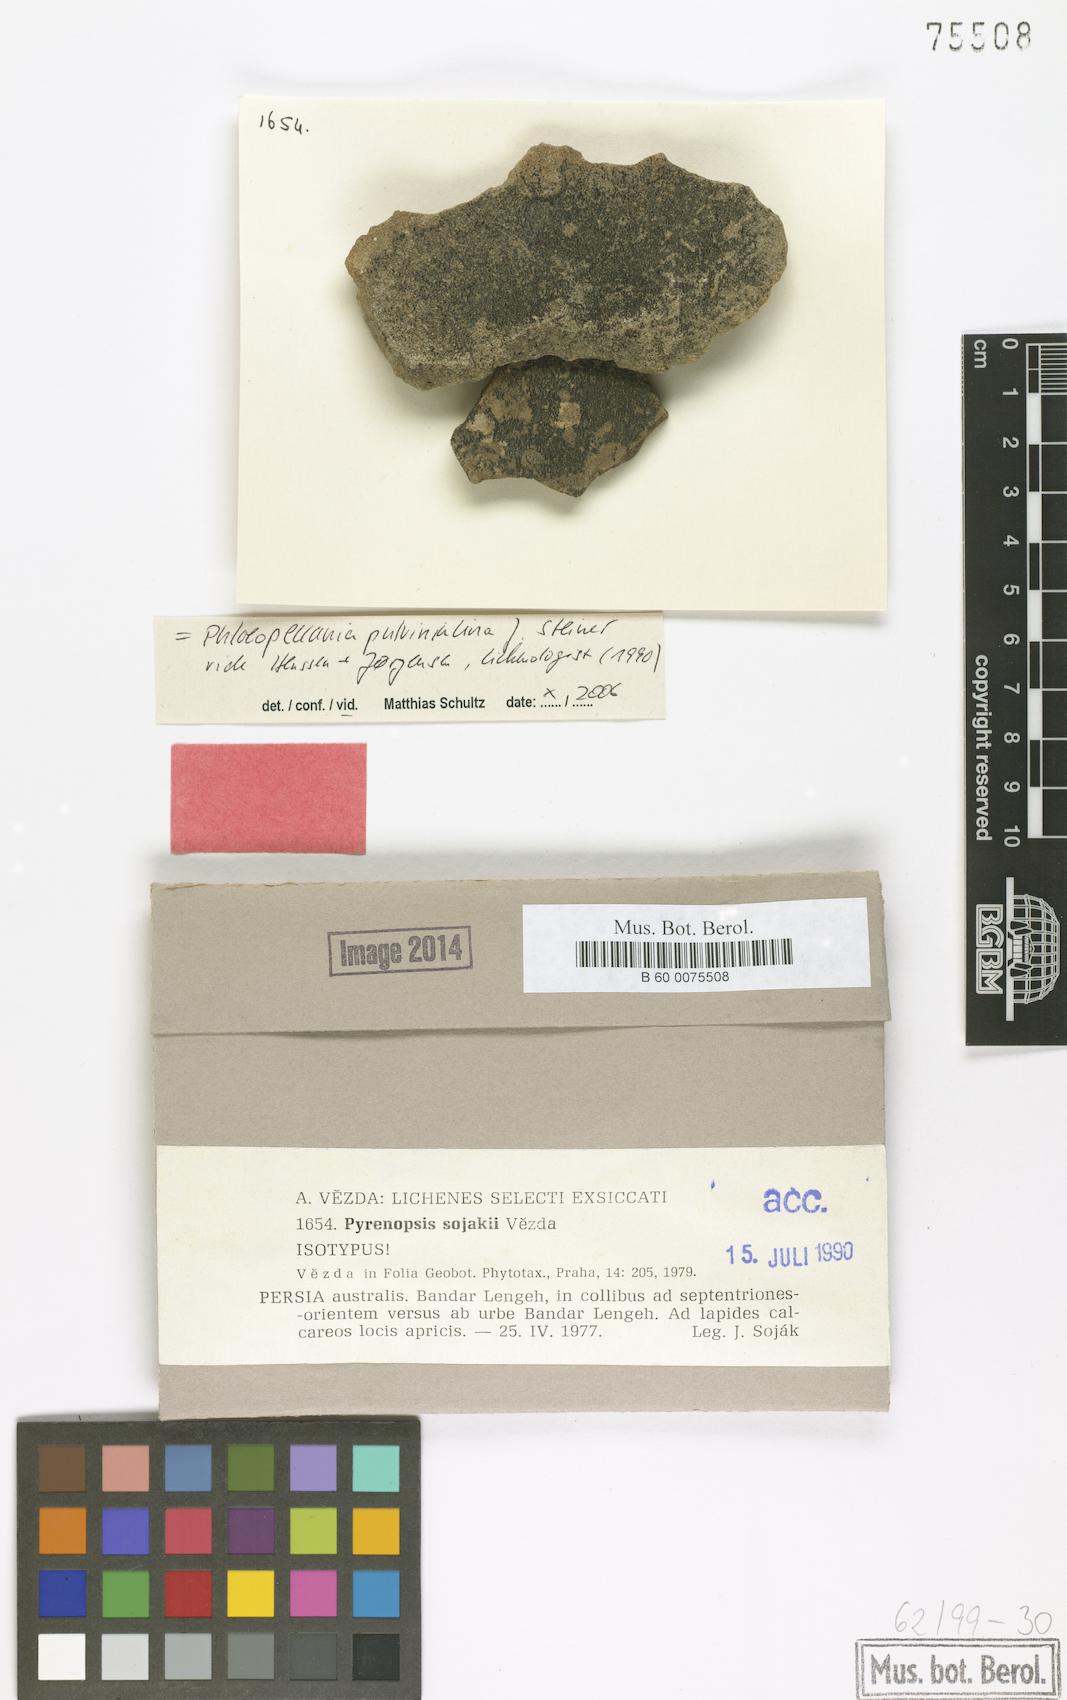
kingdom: Fungi
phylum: Ascomycota
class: Lichinomycetes
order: Lichinales
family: Lichinaceae
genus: Phloeopeccania
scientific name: Phloeopeccania pulvinulina
